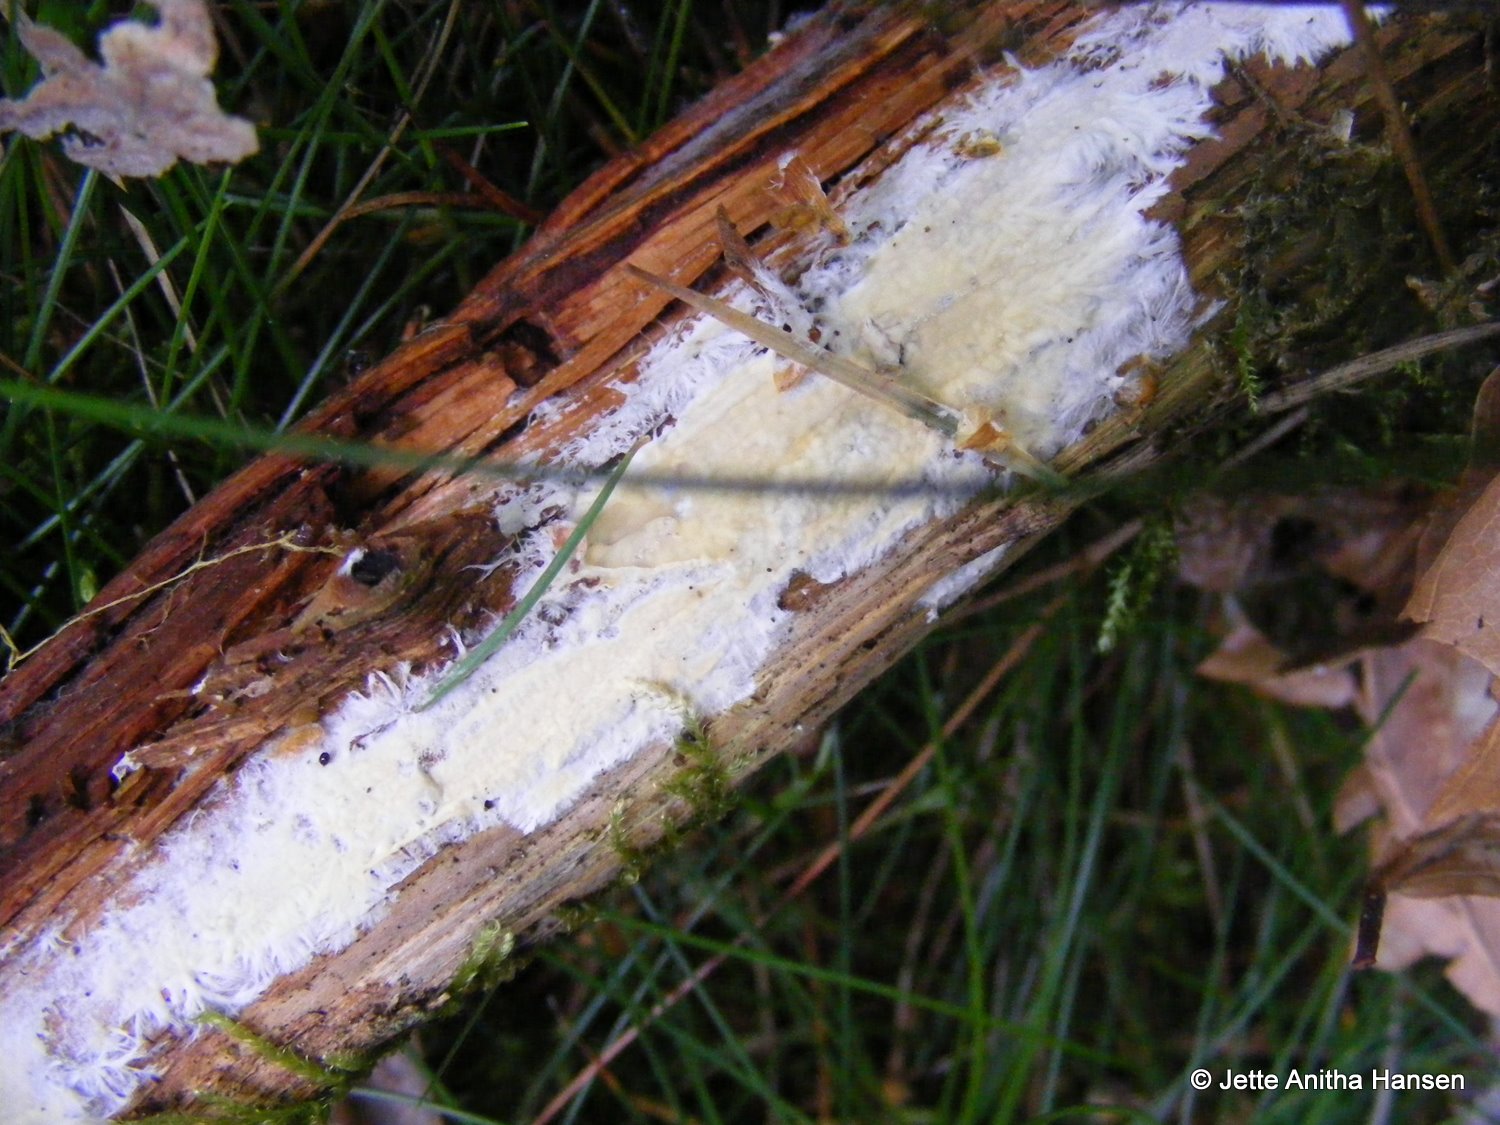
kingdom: Fungi
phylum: Basidiomycota
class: Agaricomycetes
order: Russulales
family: Peniophoraceae
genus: Gloiothele
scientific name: Gloiothele citrina
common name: citronskorpe
